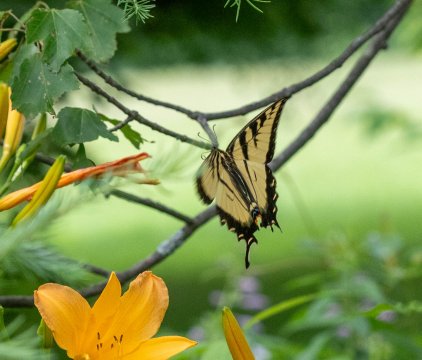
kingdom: Animalia
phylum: Arthropoda
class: Insecta
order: Lepidoptera
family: Papilionidae
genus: Pterourus
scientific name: Pterourus
